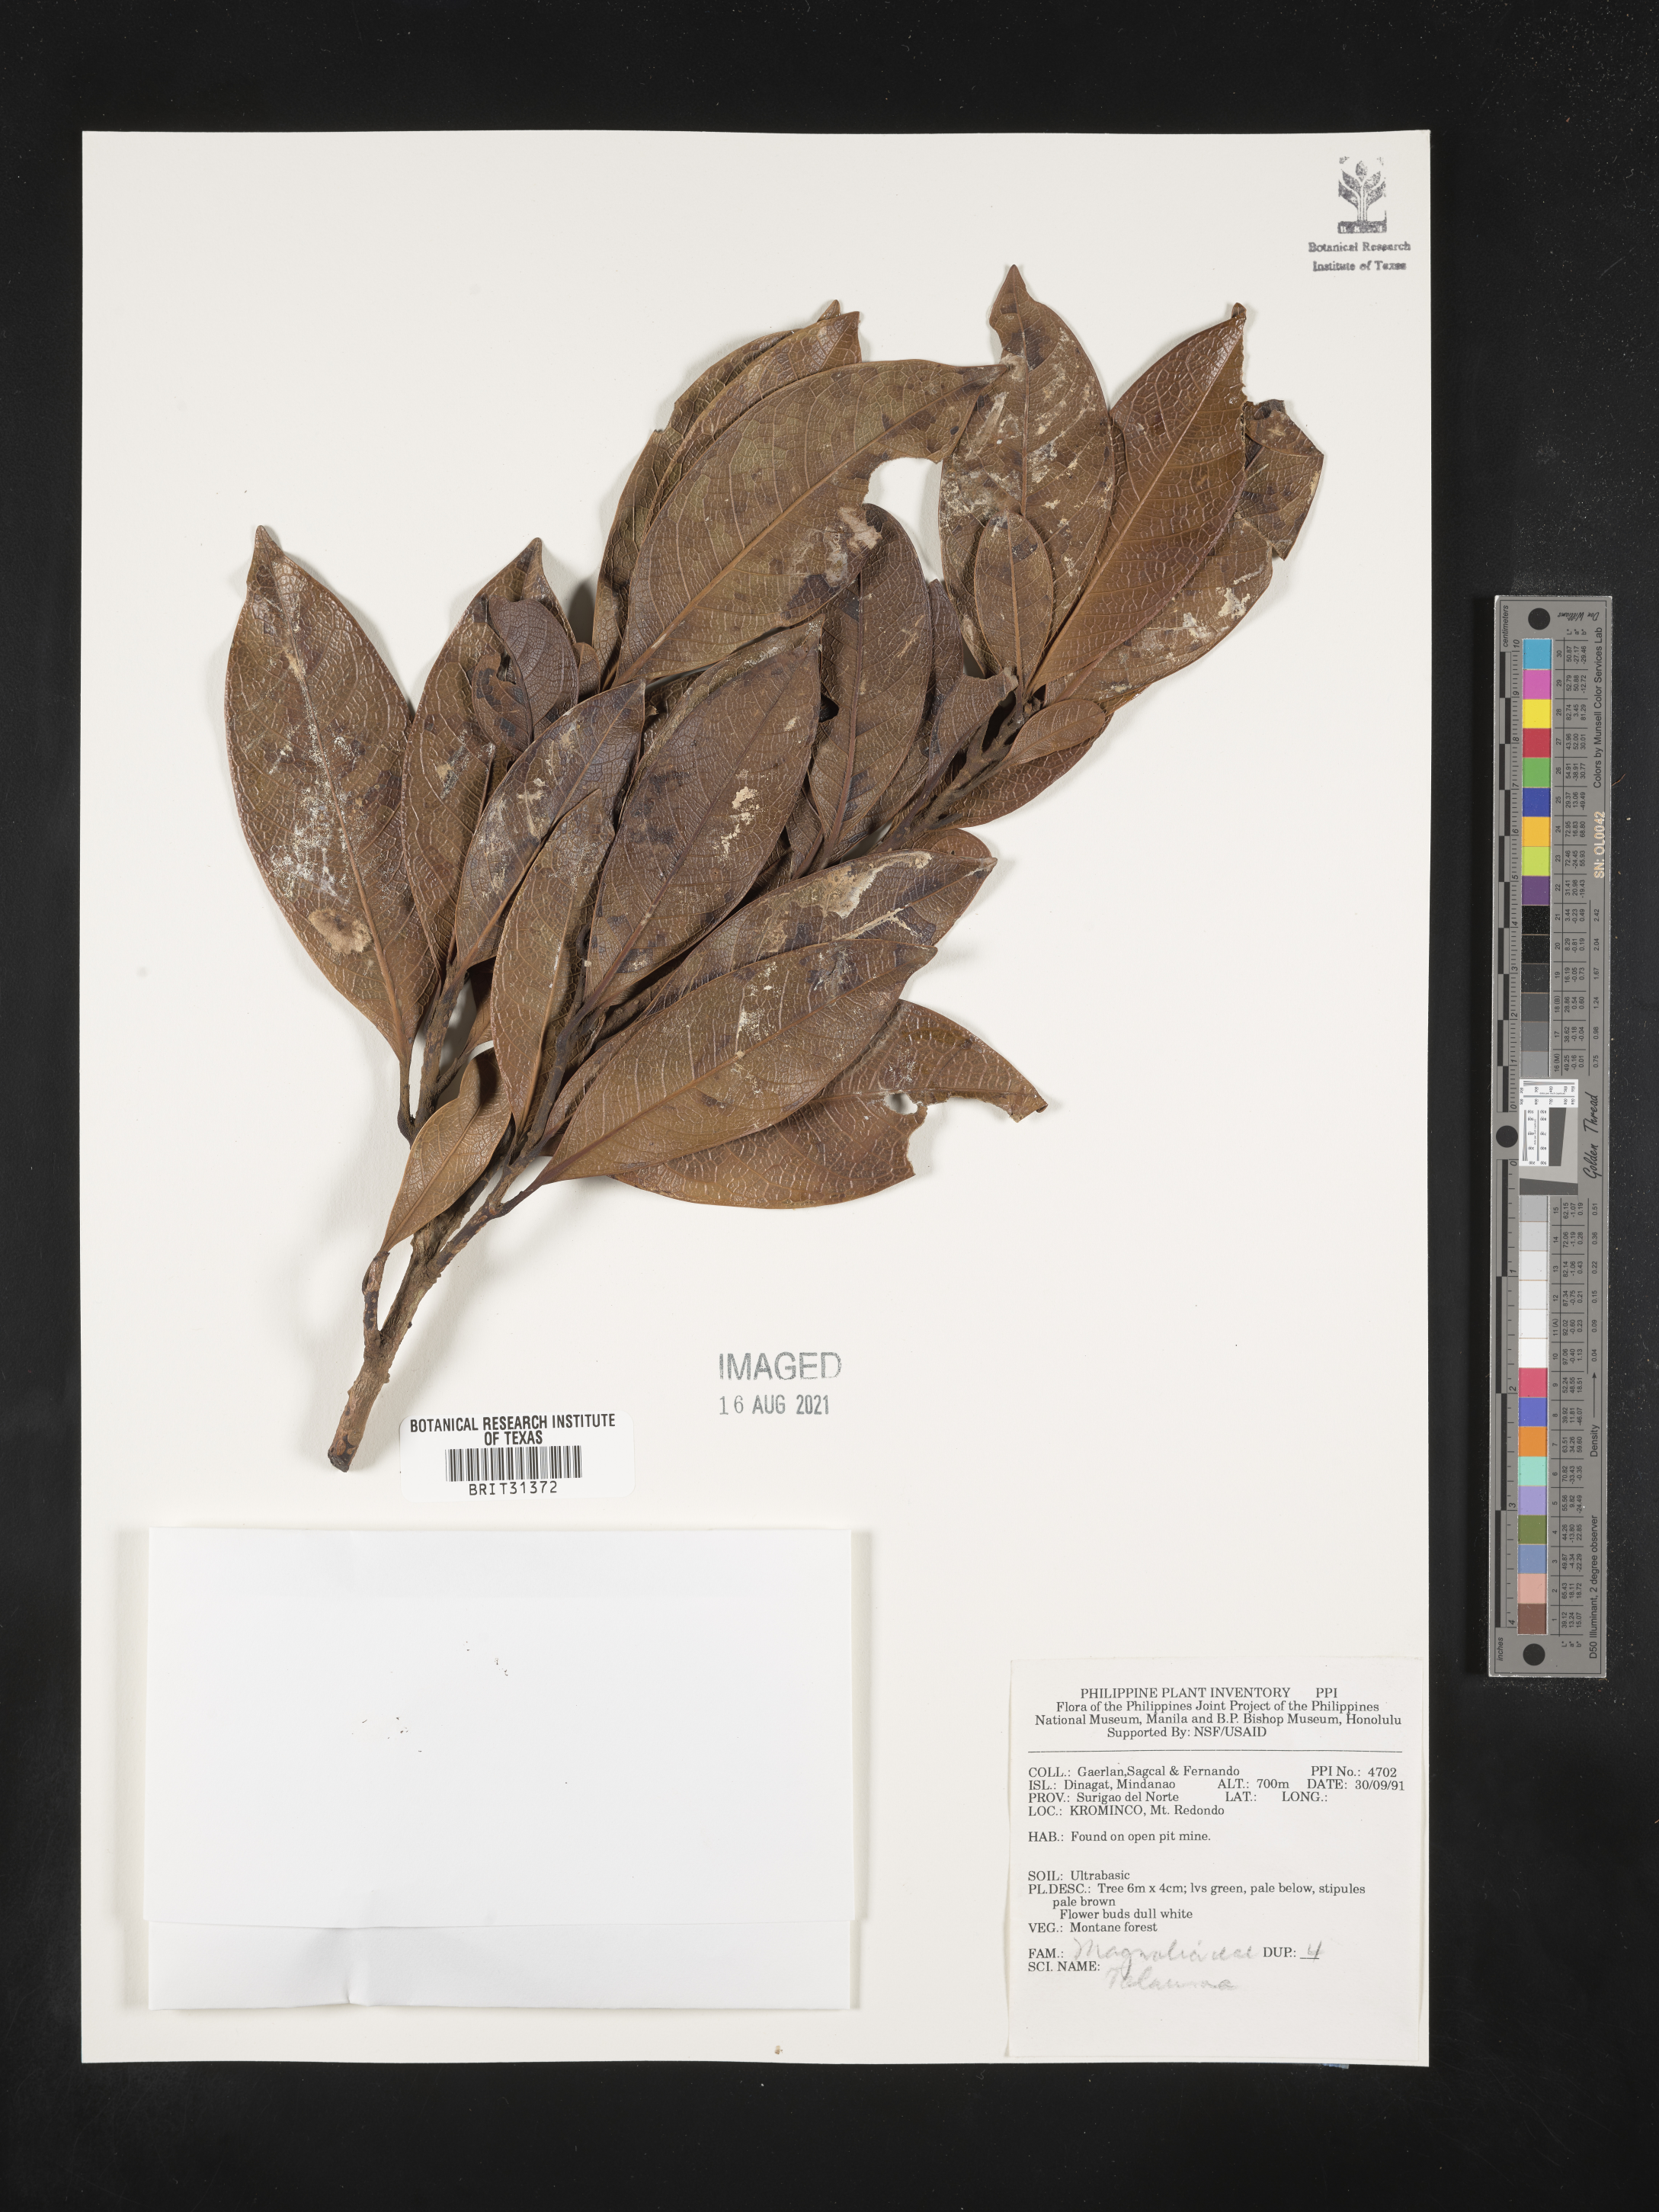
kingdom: Plantae
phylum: Tracheophyta
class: Magnoliopsida
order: Magnoliales
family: Magnoliaceae
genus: Magnolia
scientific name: Magnolia Talauma spec
